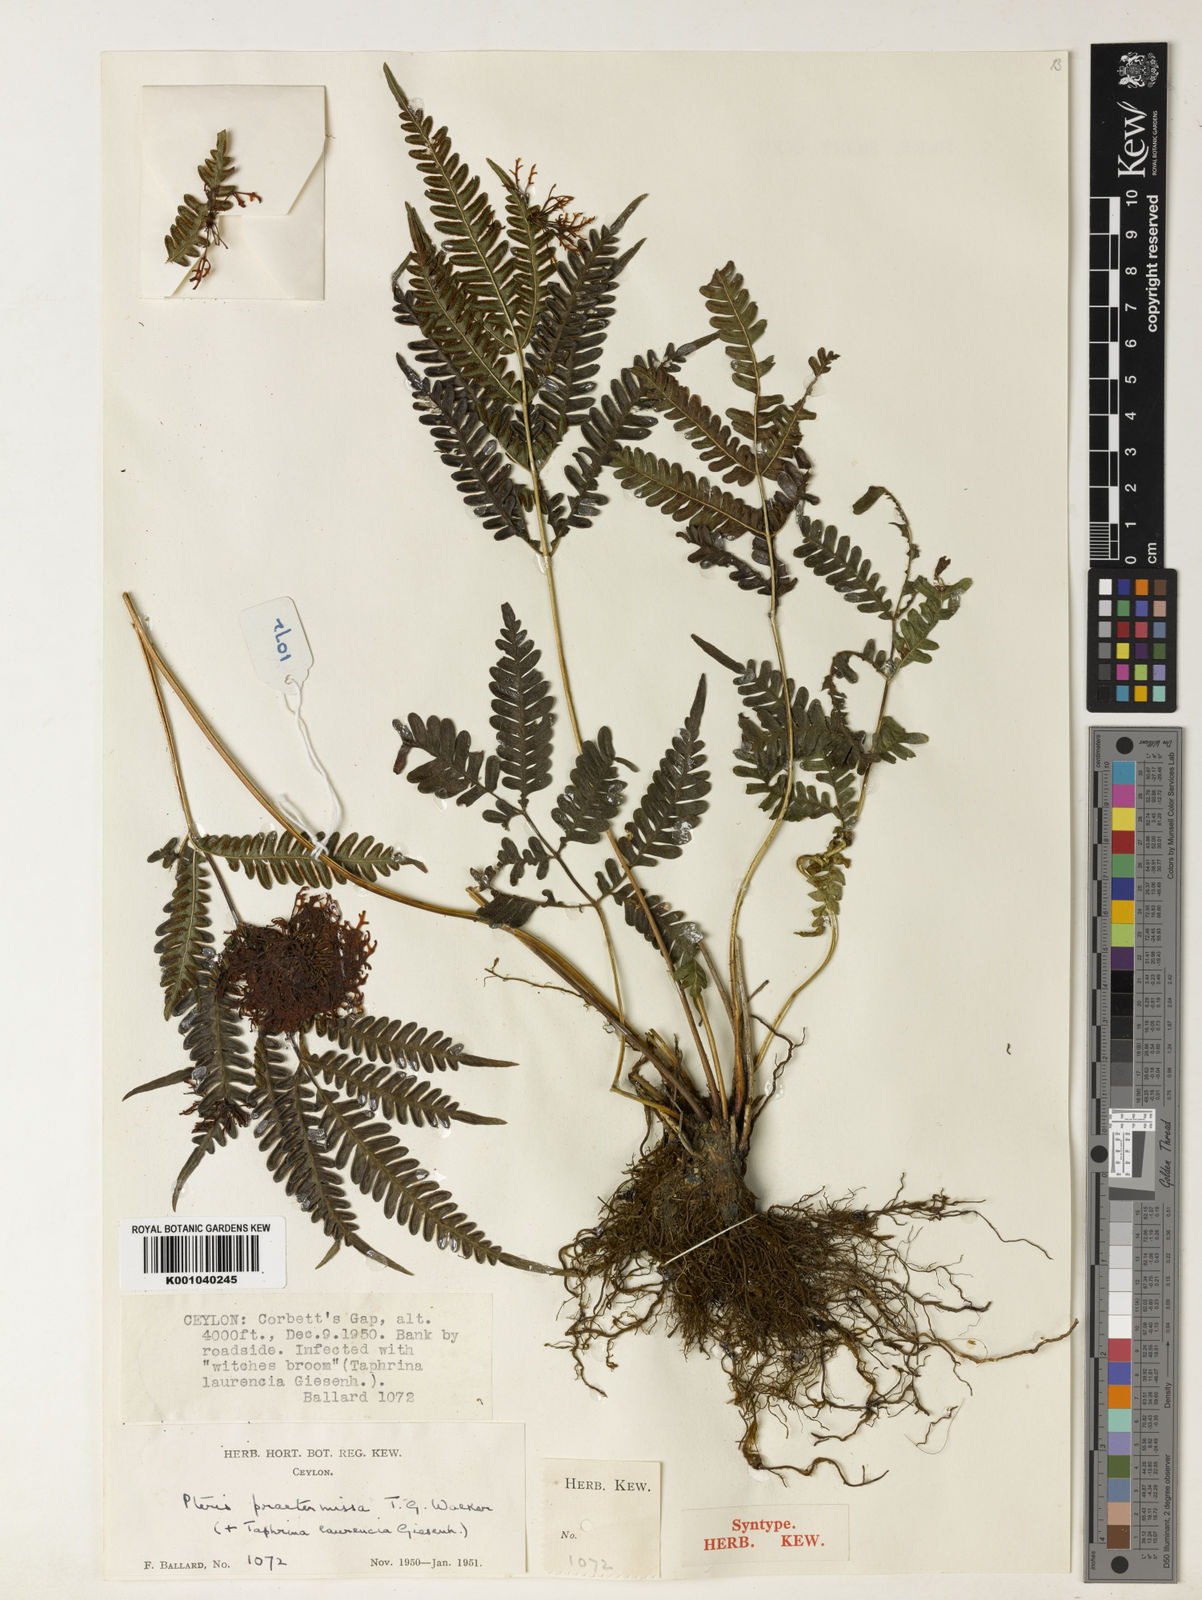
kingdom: Plantae
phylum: Tracheophyta
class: Polypodiopsida
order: Polypodiales
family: Pteridaceae
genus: Pteris
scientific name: Pteris praetermissa
